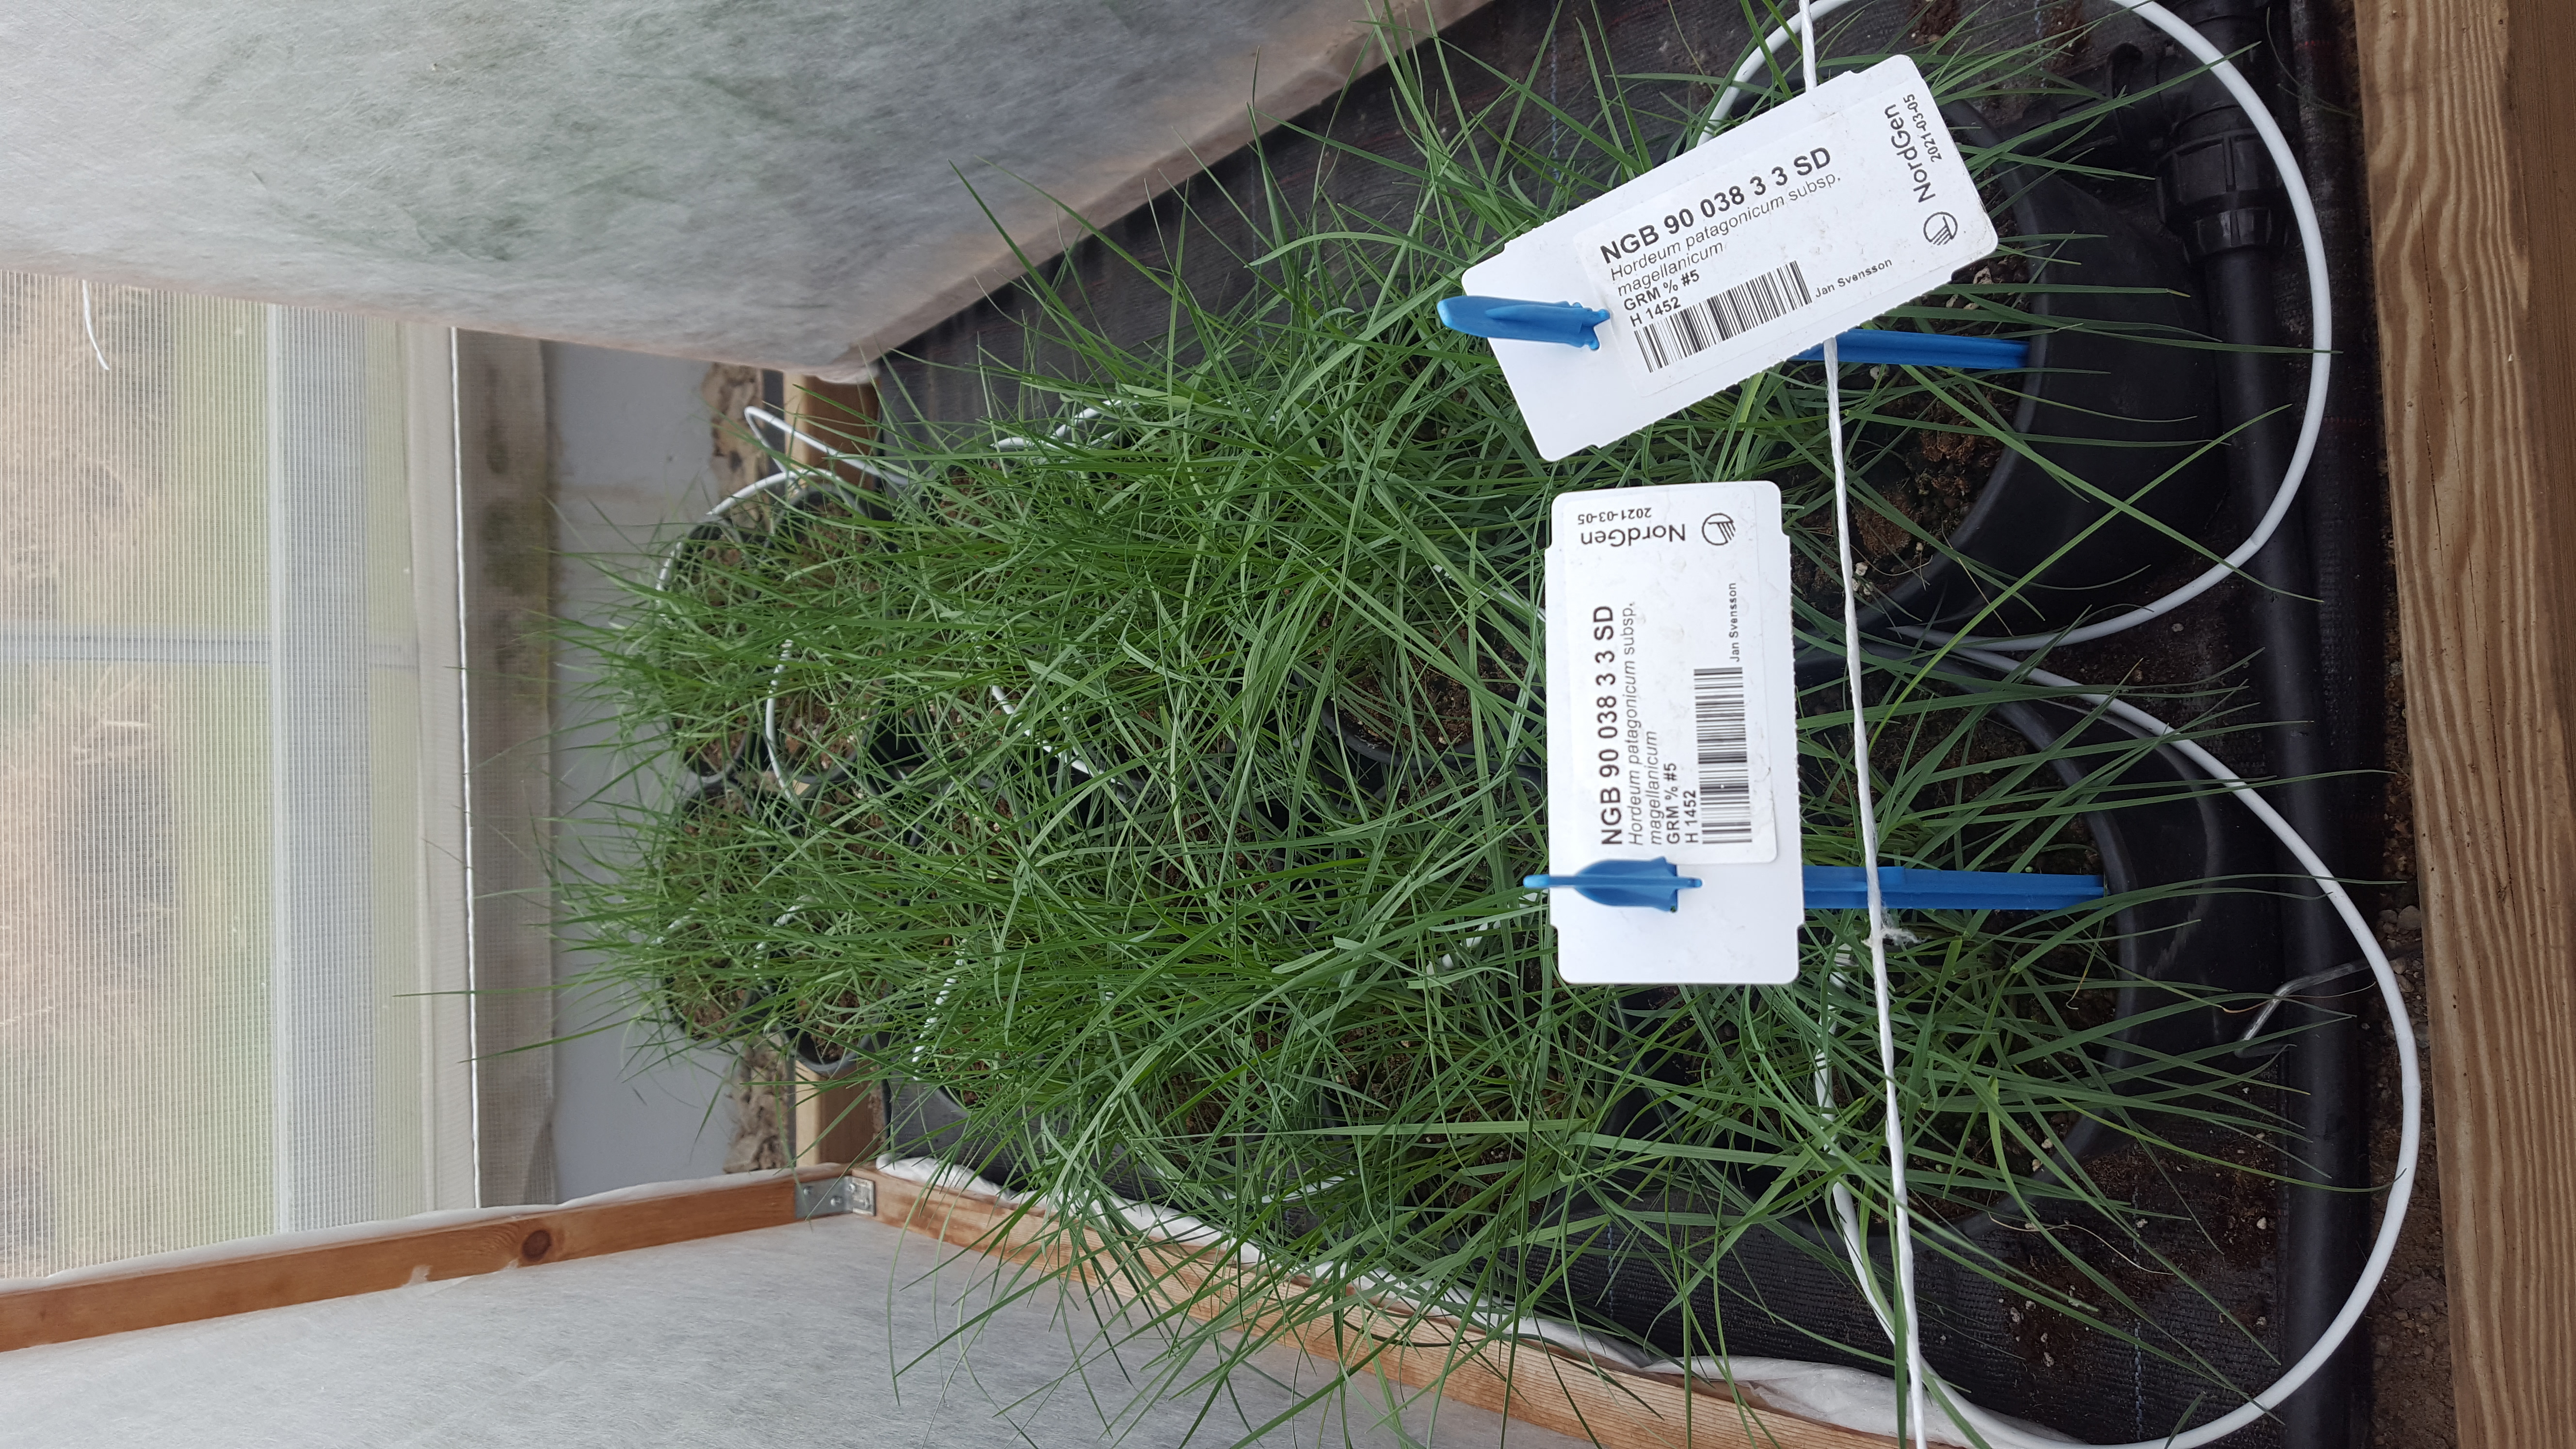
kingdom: Plantae
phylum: Tracheophyta
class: Liliopsida
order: Poales
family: Poaceae
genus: Hordeum
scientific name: Hordeum patagonicum
